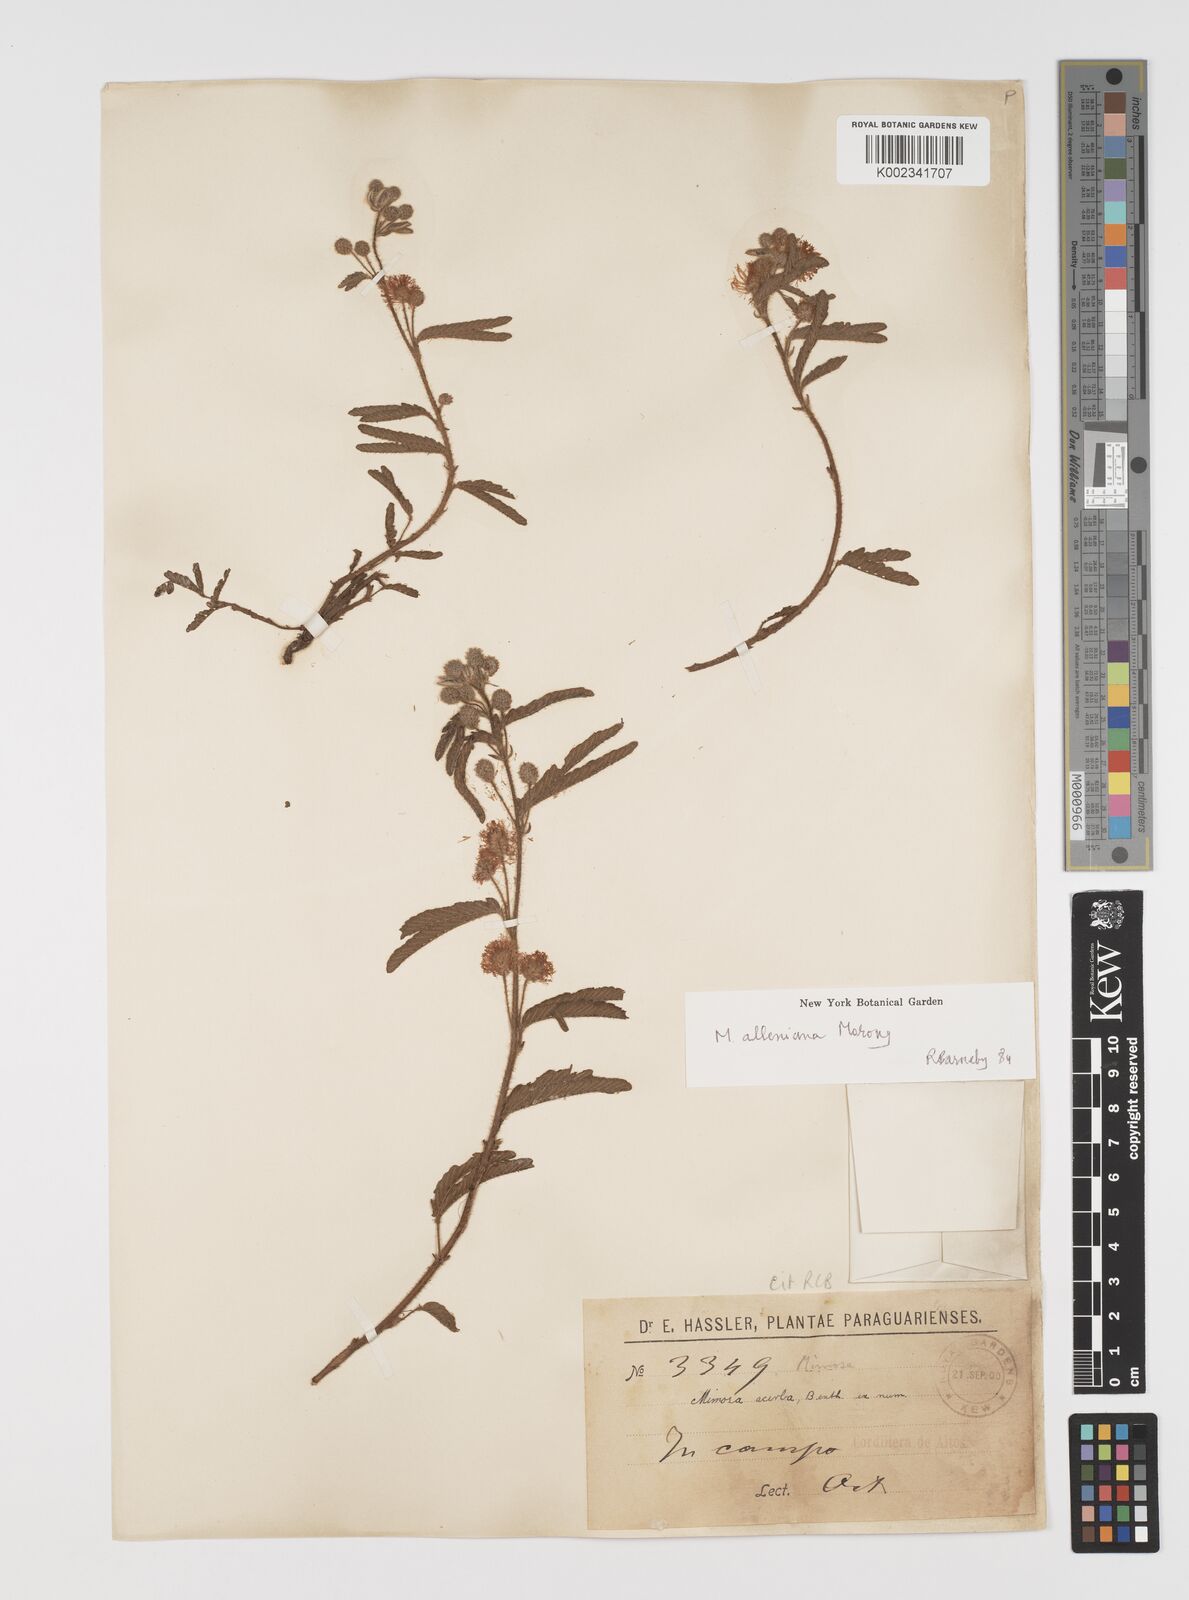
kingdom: Plantae
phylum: Tracheophyta
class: Magnoliopsida
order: Fabales
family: Fabaceae
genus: Mimosa
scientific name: Mimosa alleniana
